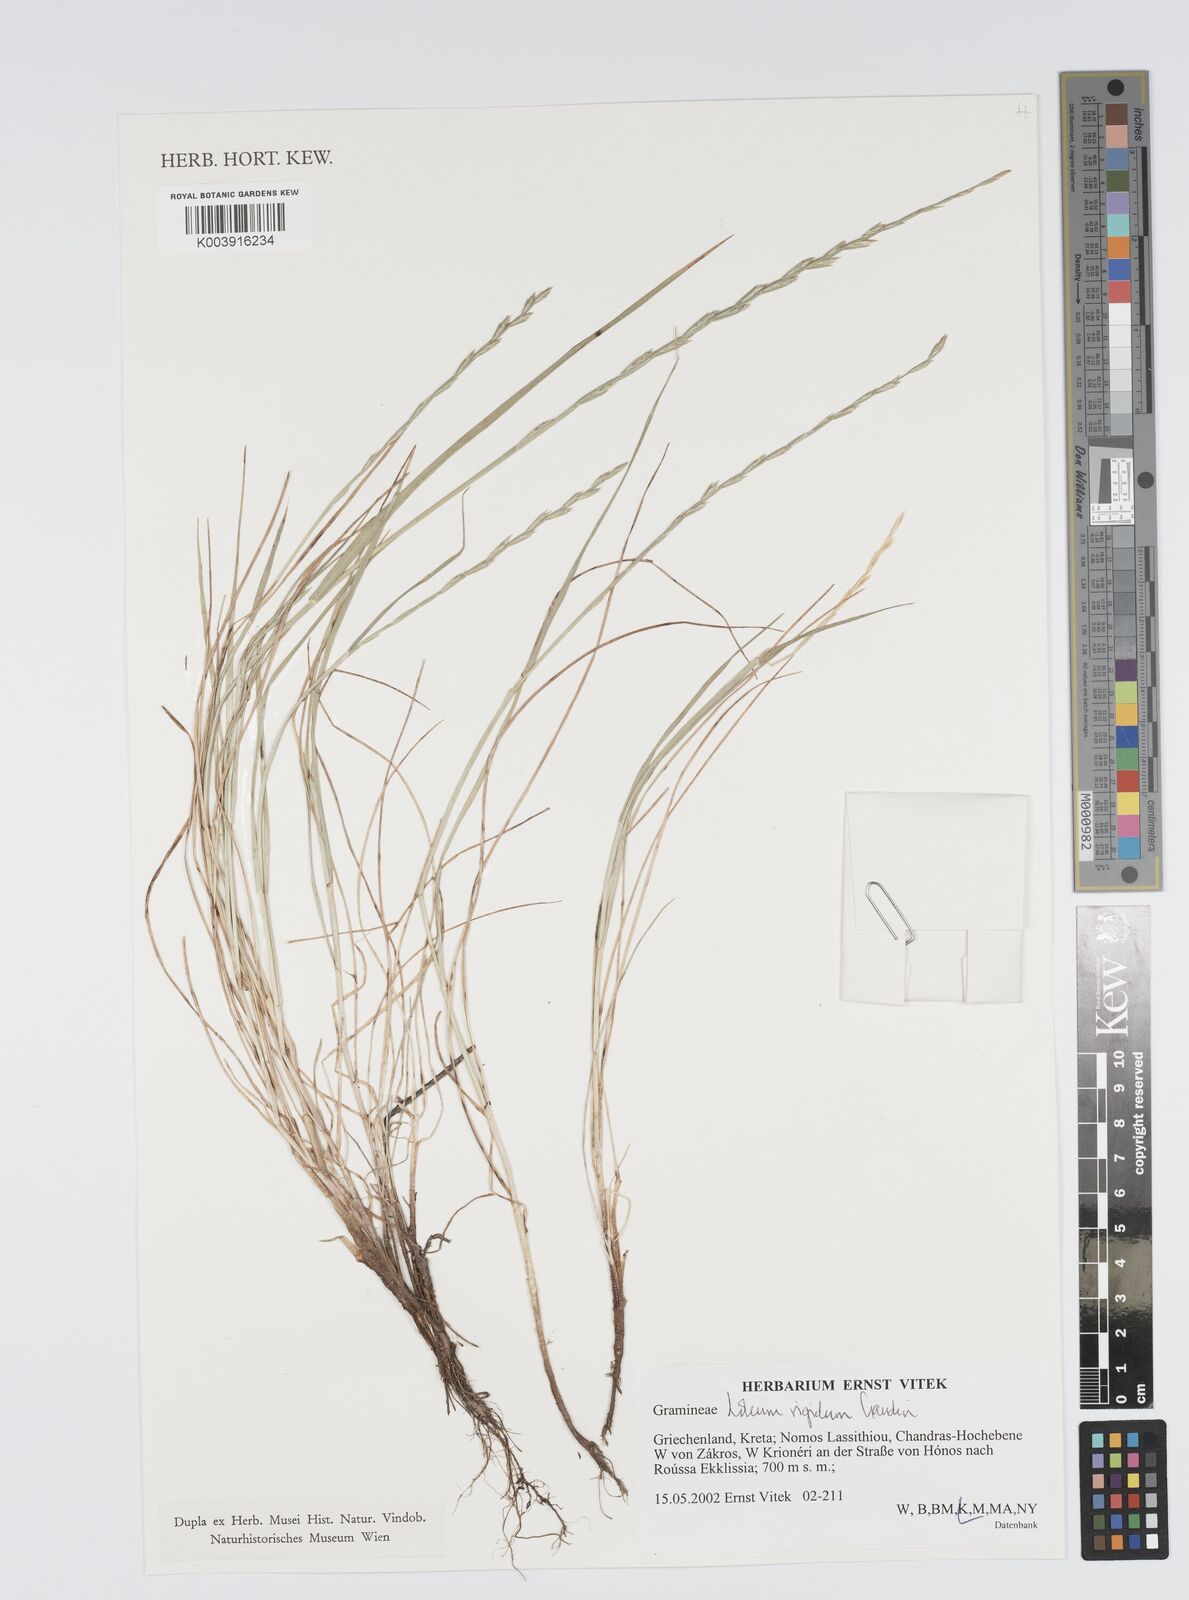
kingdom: Plantae
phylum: Tracheophyta
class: Liliopsida
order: Poales
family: Poaceae
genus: Lolium
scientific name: Lolium rigidum
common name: Wimmera ryegrass
